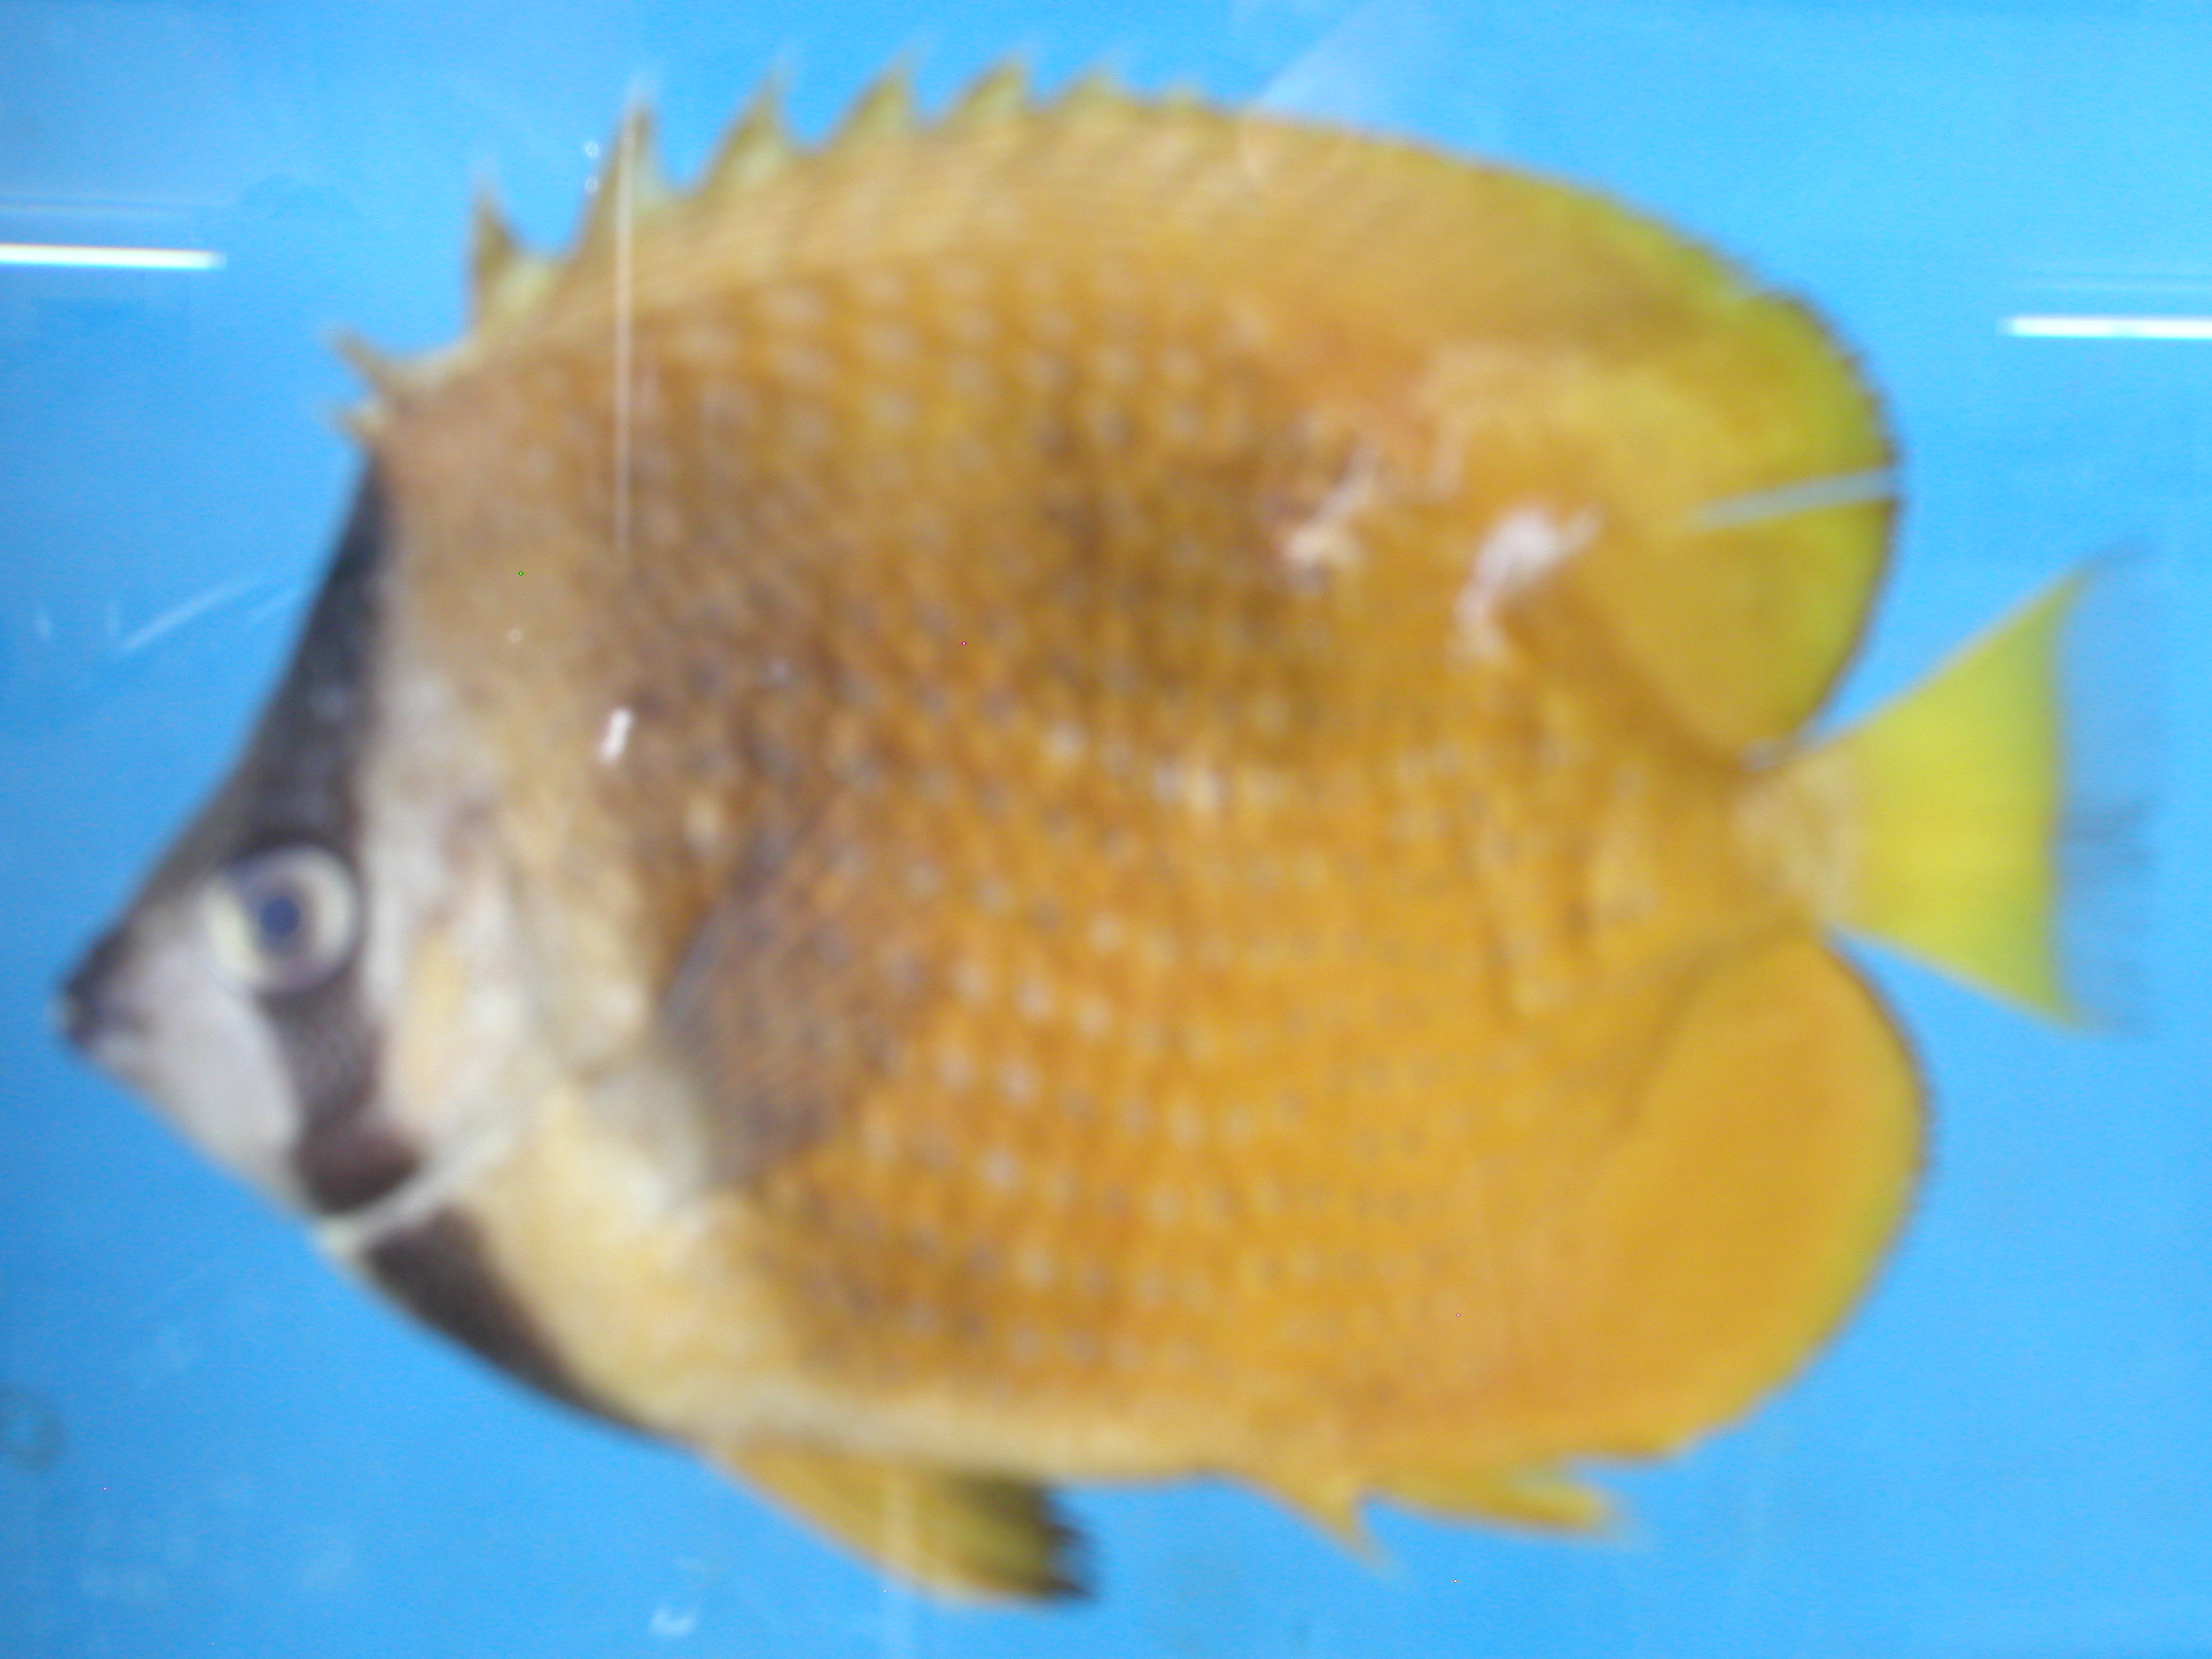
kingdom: Animalia
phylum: Chordata
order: Perciformes
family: Chaetodontidae
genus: Chaetodon
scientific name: Chaetodon kleinii
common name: Klein's butterflyfish
